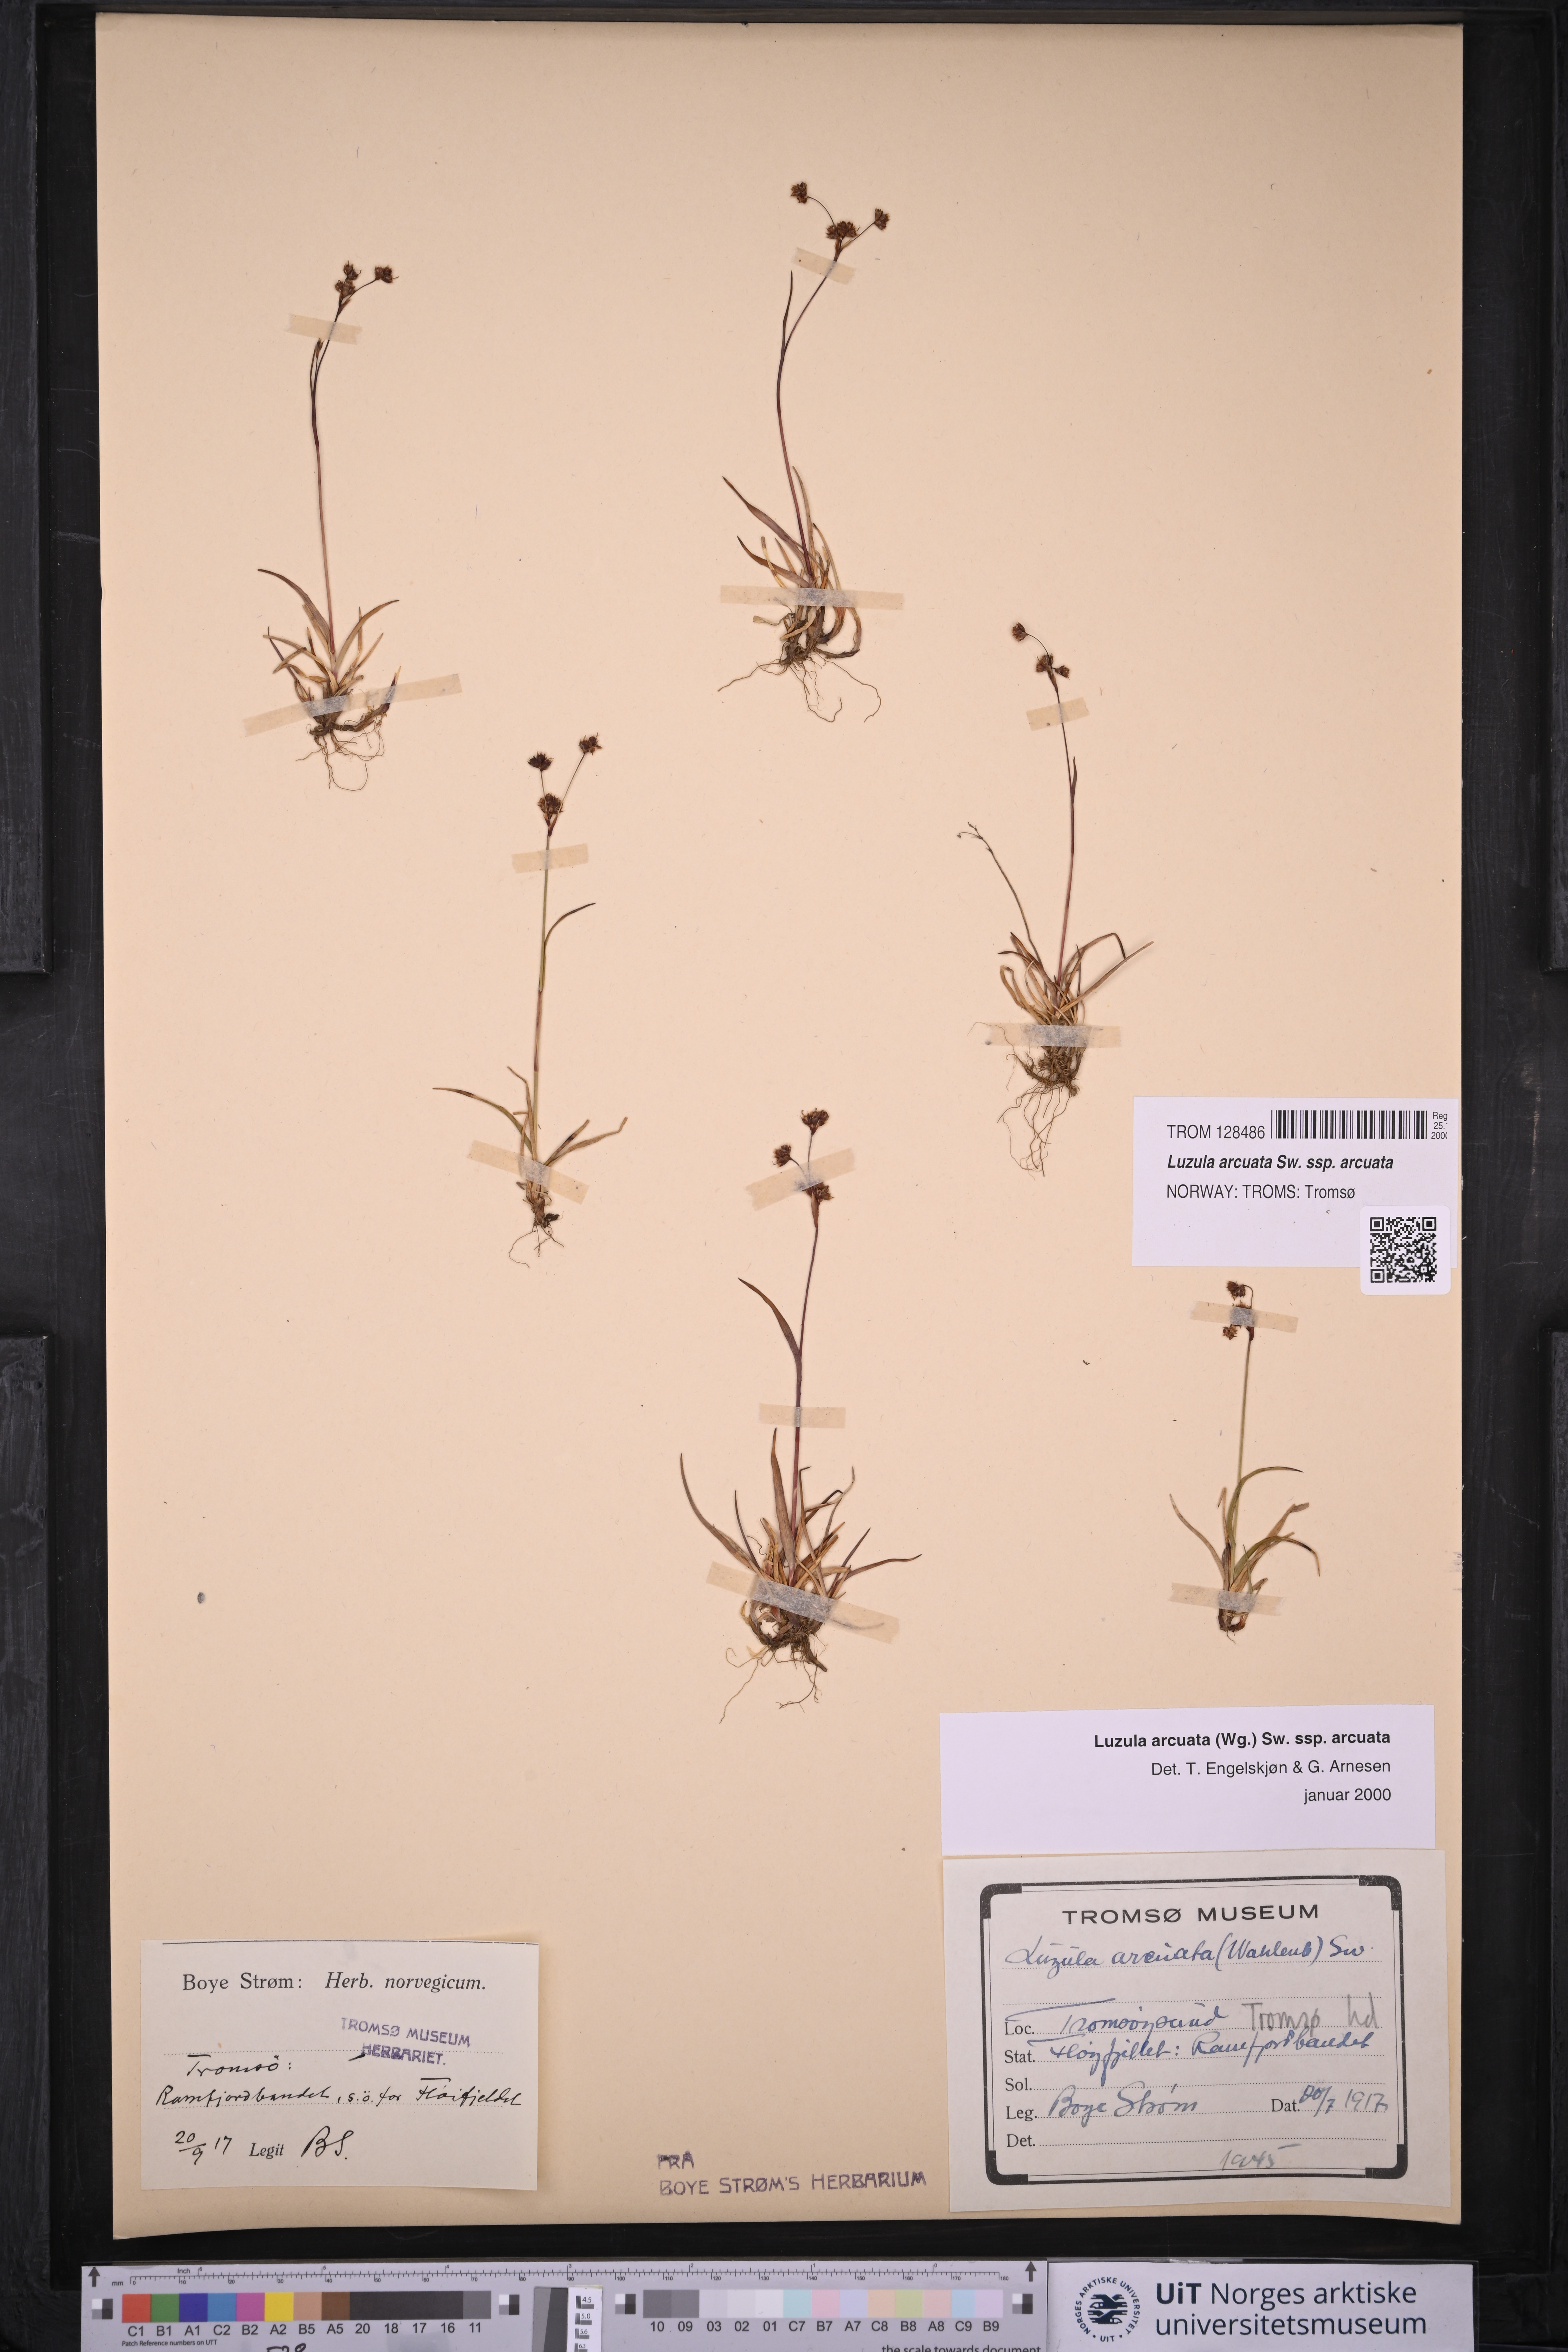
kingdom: Plantae
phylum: Tracheophyta
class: Liliopsida
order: Poales
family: Juncaceae
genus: Luzula
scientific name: Luzula arcuata
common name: Curved wood-rush
